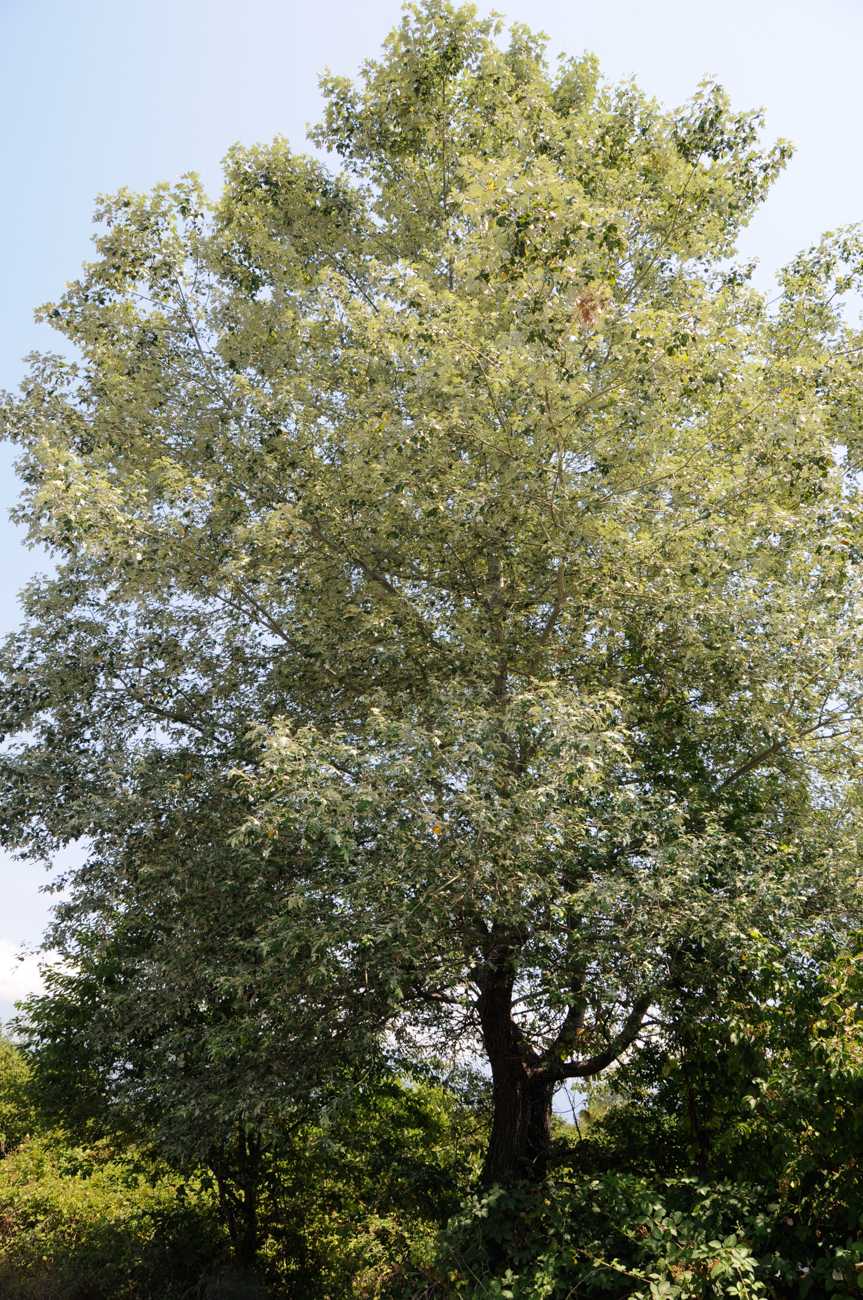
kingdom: Plantae
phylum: Tracheophyta
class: Magnoliopsida
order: Malpighiales
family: Salicaceae
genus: Populus
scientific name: Populus alba
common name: White poplar
